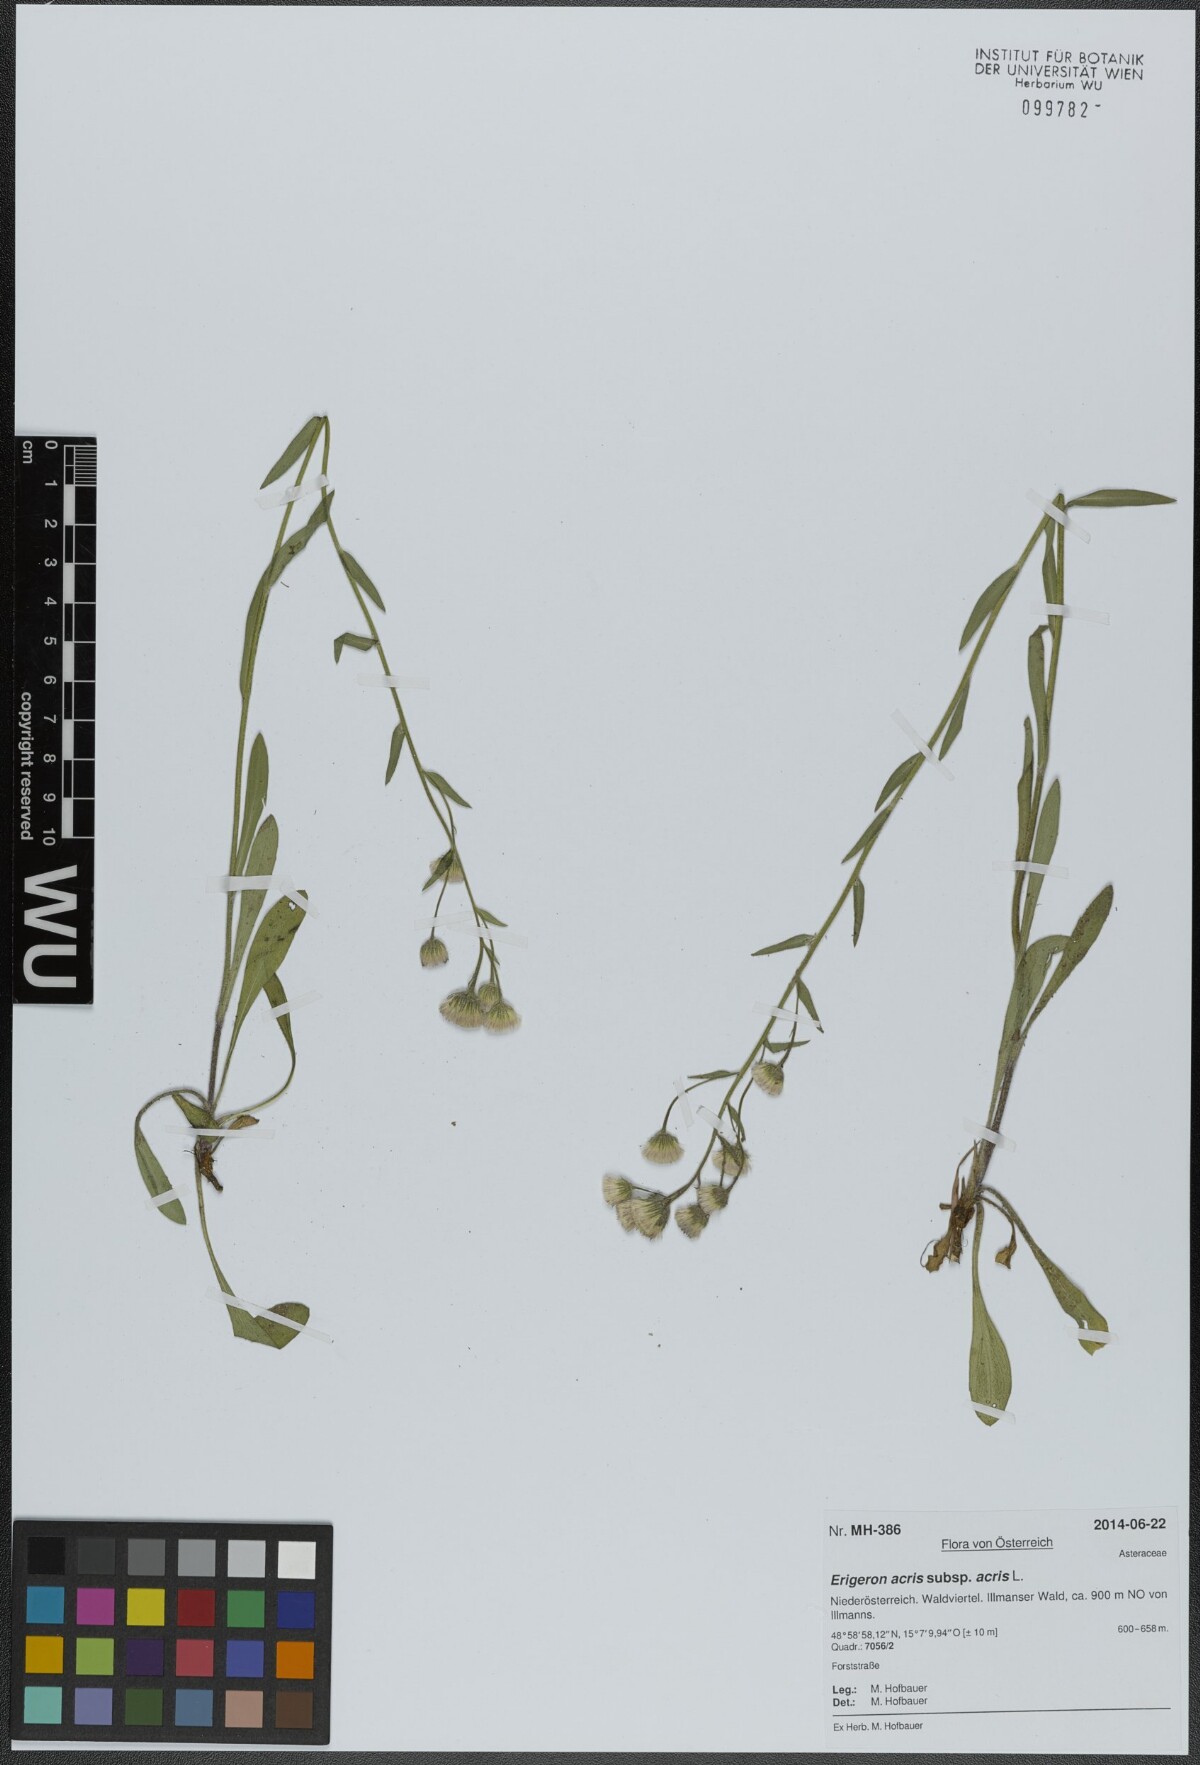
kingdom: Plantae
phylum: Tracheophyta
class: Magnoliopsida
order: Asterales
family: Asteraceae
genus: Erigeron
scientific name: Erigeron acris
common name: Blue fleabane
